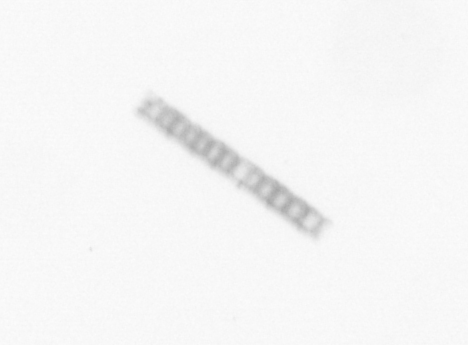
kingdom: Chromista
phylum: Ochrophyta
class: Bacillariophyceae
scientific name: Bacillariophyceae
